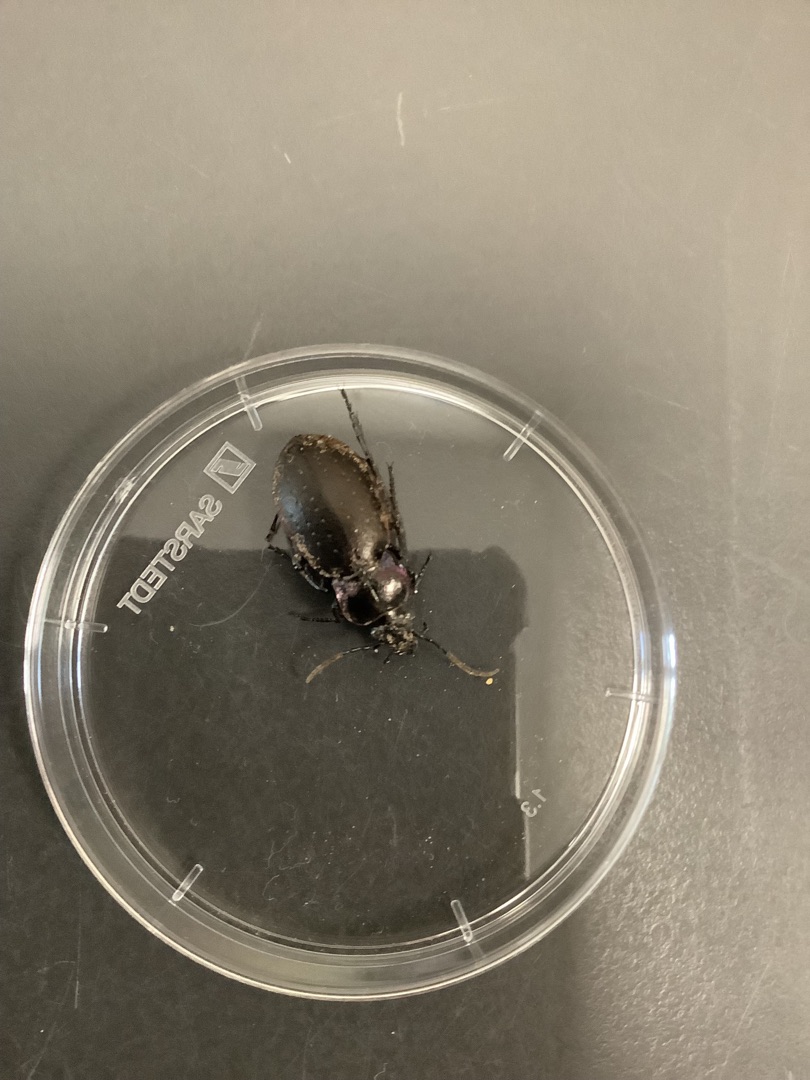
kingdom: Animalia
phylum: Arthropoda
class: Insecta
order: Coleoptera
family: Carabidae
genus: Carabus
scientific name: Carabus nemoralis
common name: Kratløber
